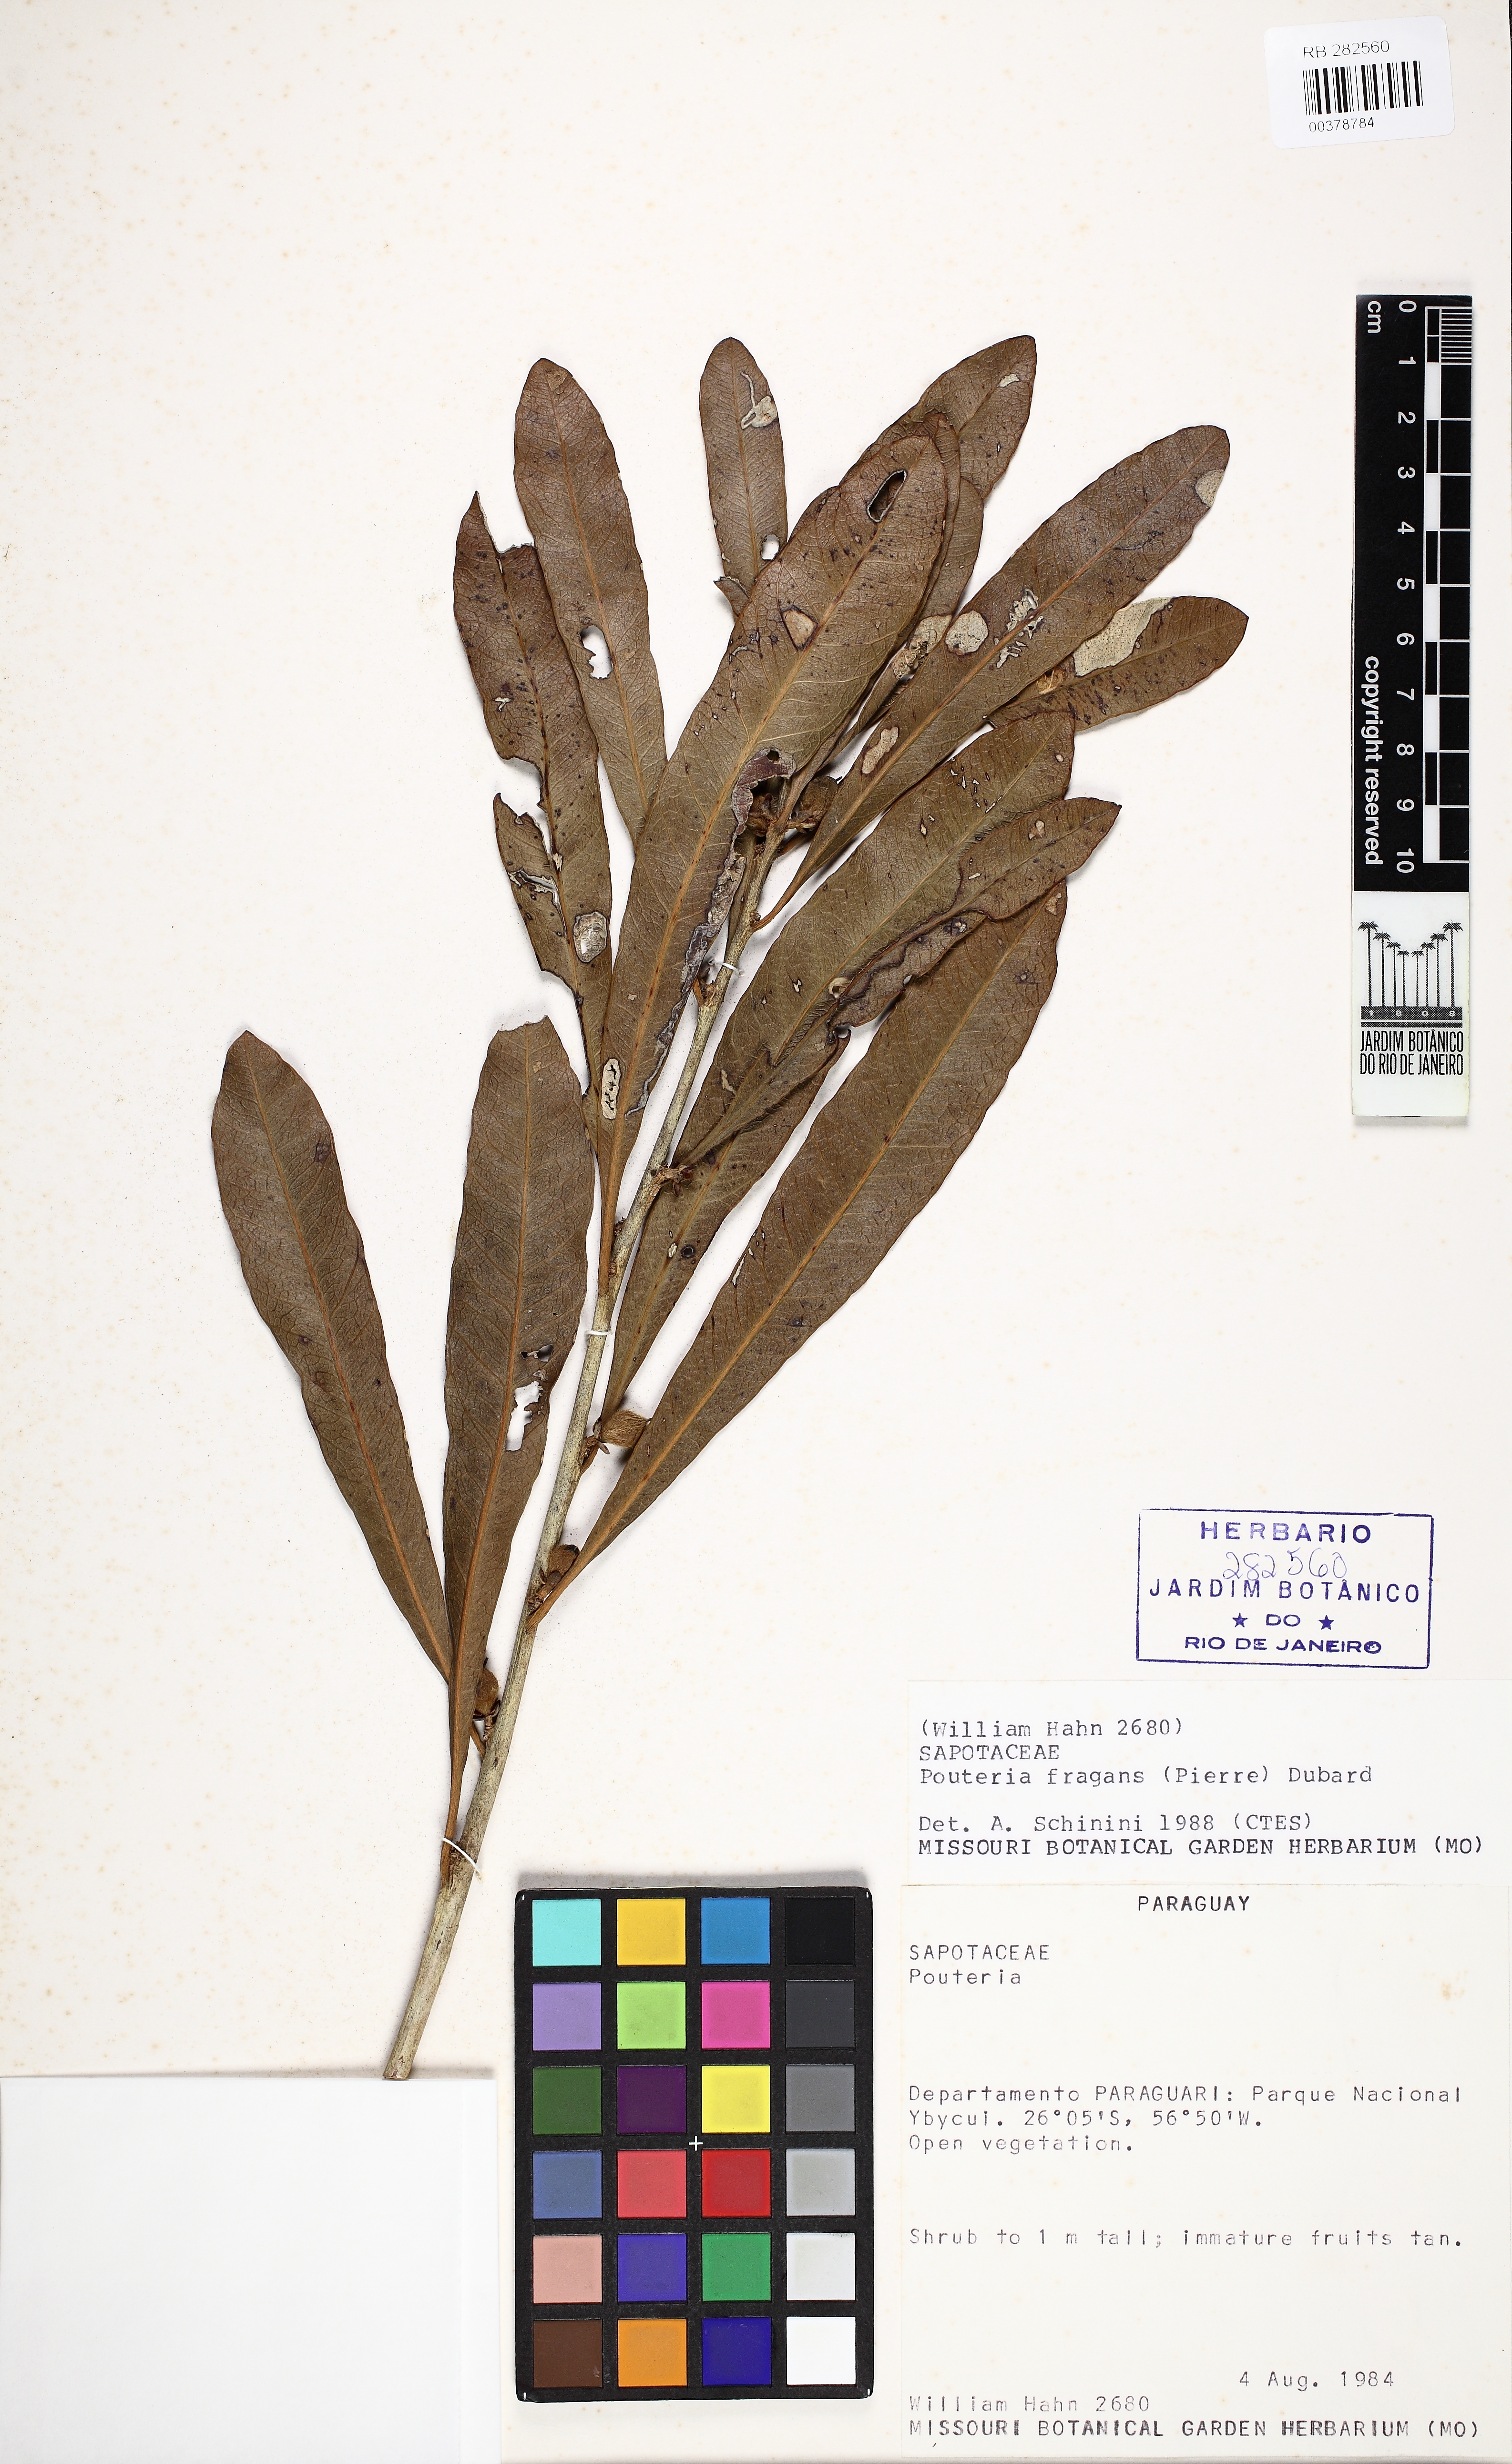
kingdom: Plantae
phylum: Tracheophyta
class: Magnoliopsida
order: Ericales
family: Sapotaceae
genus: Pouteria
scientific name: Pouteria fragrans
